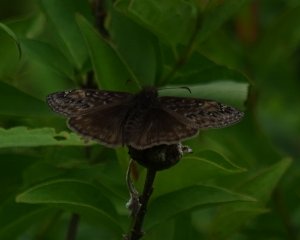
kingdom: Animalia
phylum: Arthropoda
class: Insecta
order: Lepidoptera
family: Hesperiidae
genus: Gesta
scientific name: Gesta
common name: Juvenal's Duskywing
